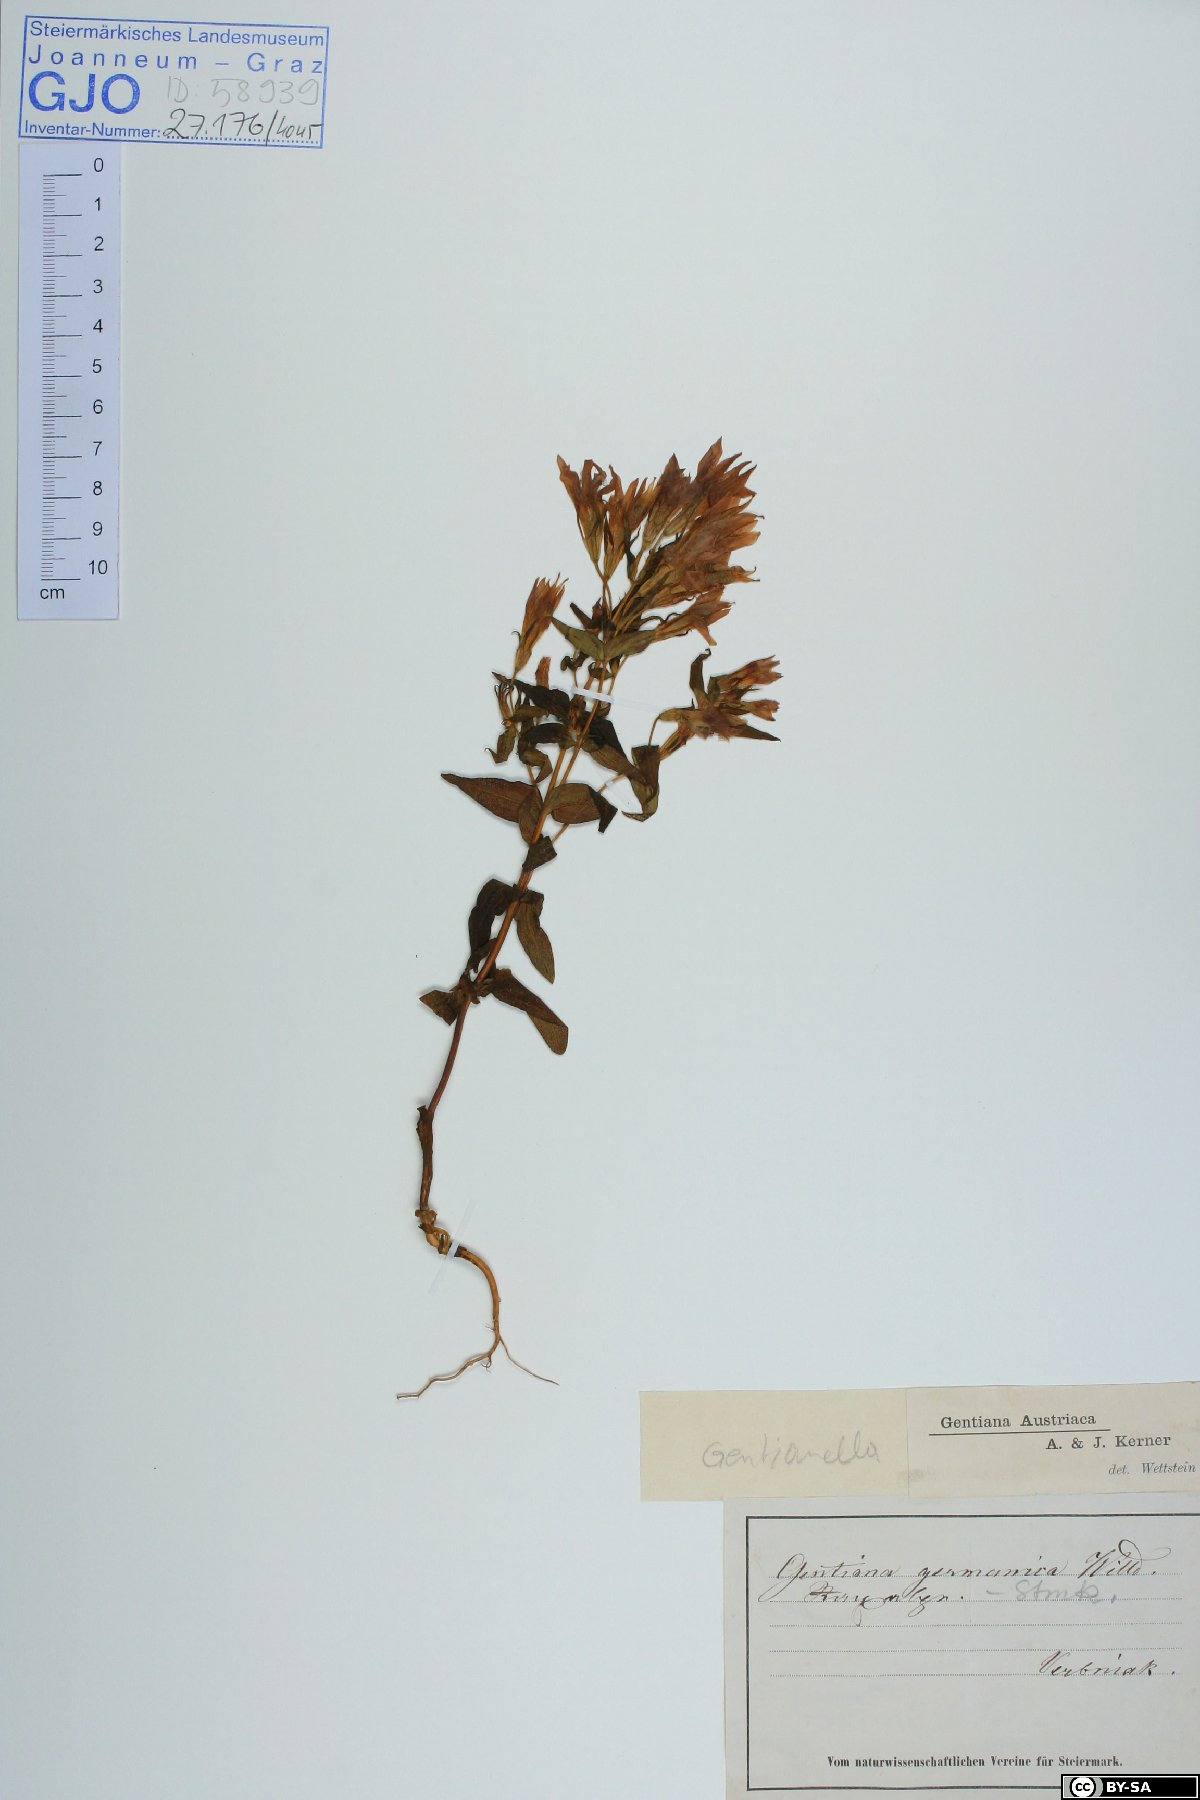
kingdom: Plantae
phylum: Tracheophyta
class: Magnoliopsida
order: Gentianales
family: Gentianaceae
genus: Gentianella
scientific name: Gentianella austriaca
